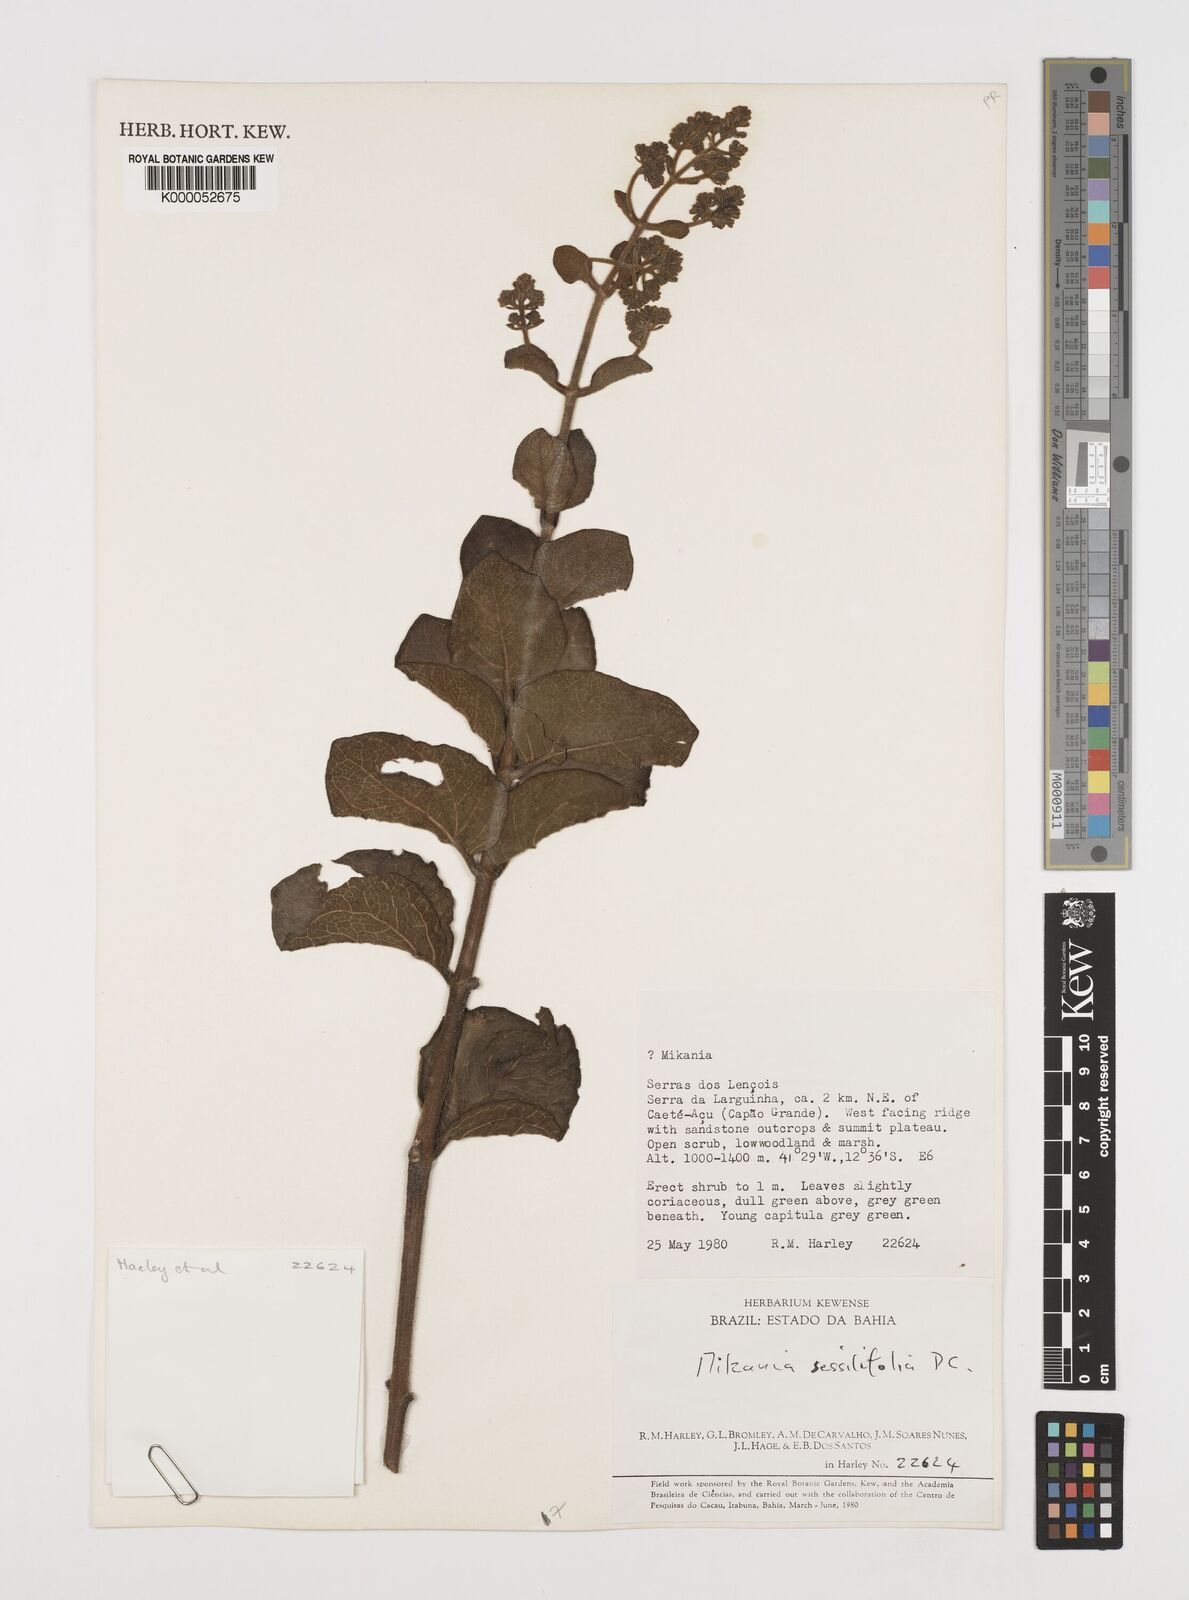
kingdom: Plantae
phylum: Tracheophyta
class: Magnoliopsida
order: Asterales
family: Asteraceae
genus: Mikania
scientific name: Mikania sessilifolia
